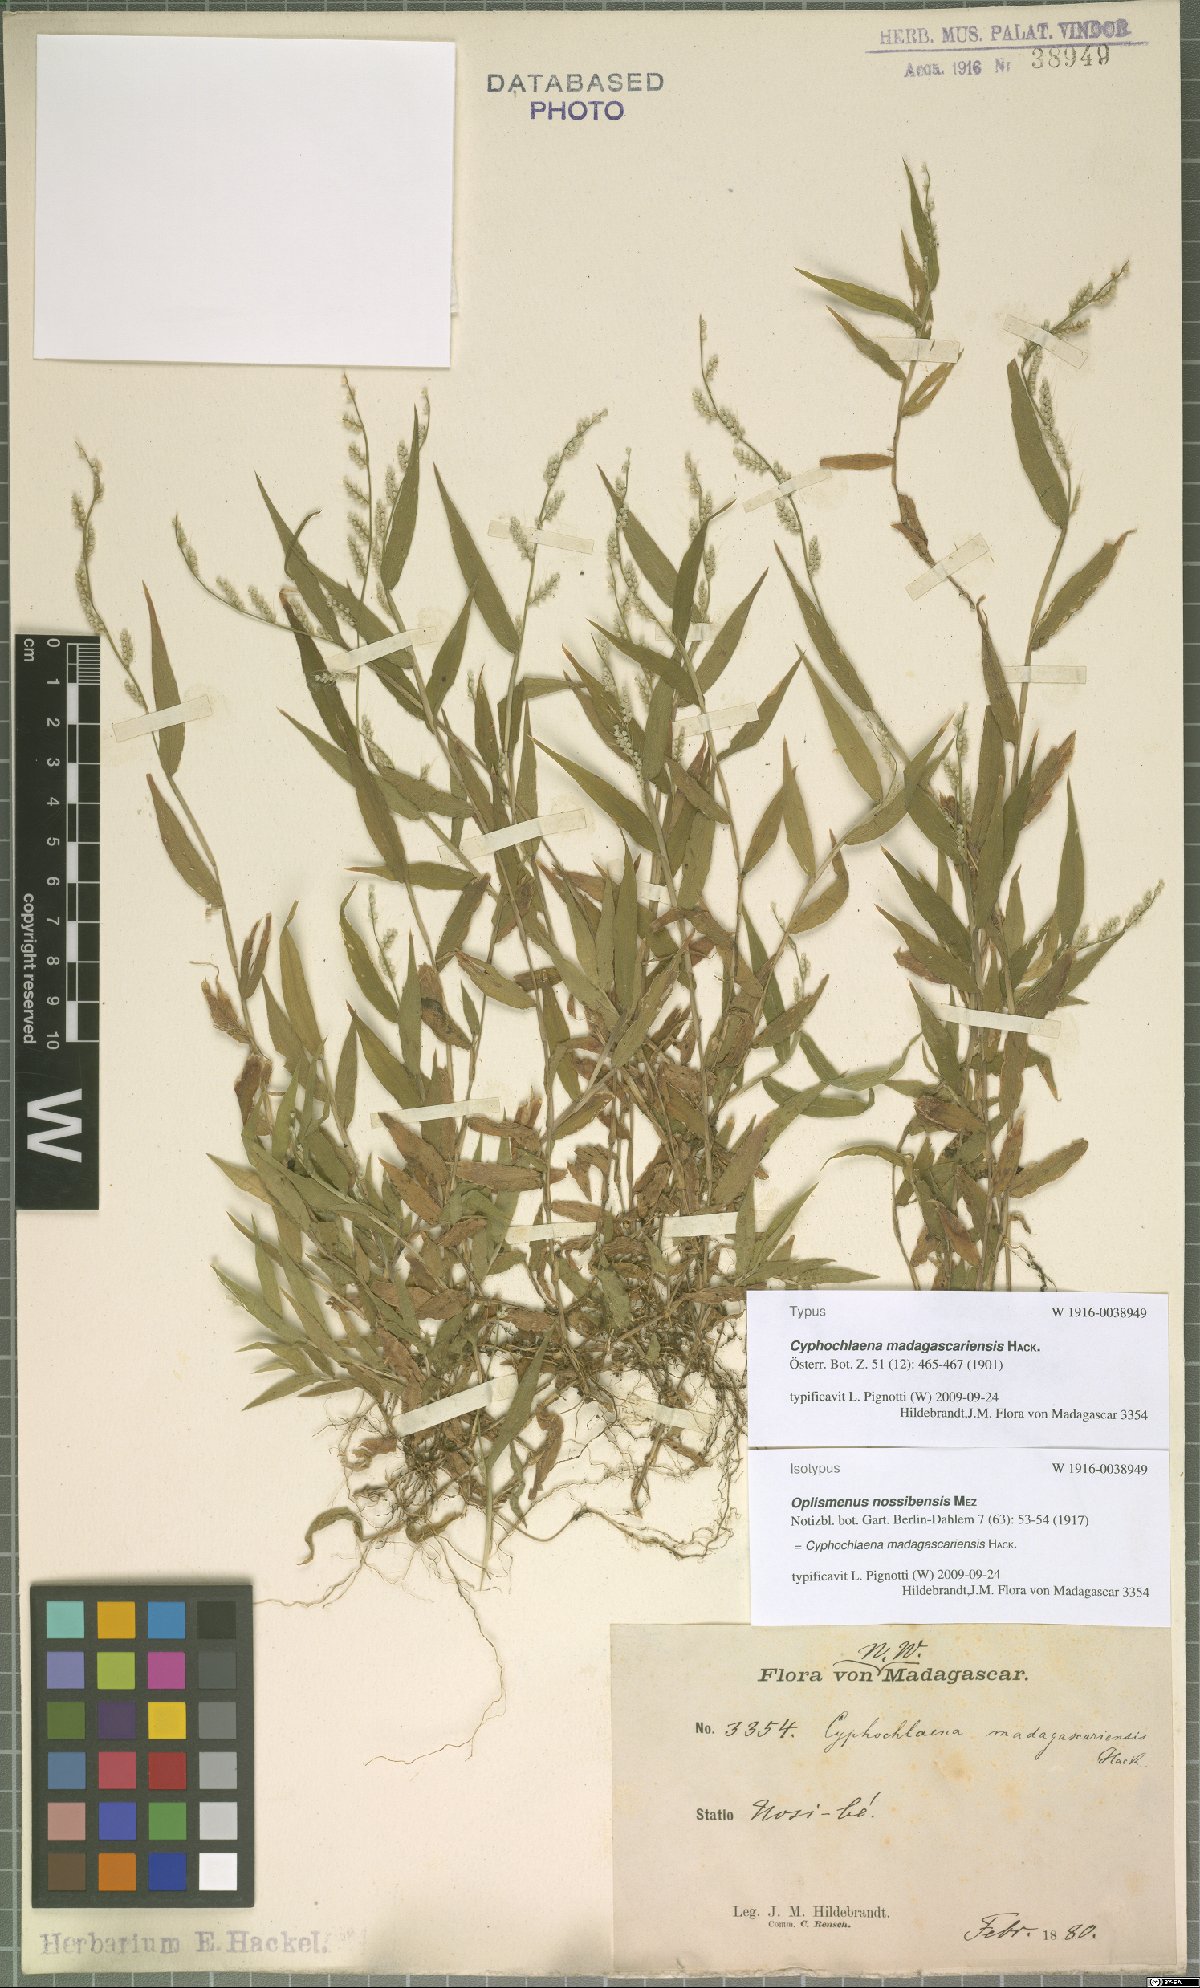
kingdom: Plantae
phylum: Tracheophyta
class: Liliopsida
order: Poales
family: Poaceae
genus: Cyphochlaena
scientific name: Cyphochlaena madagascariensis
